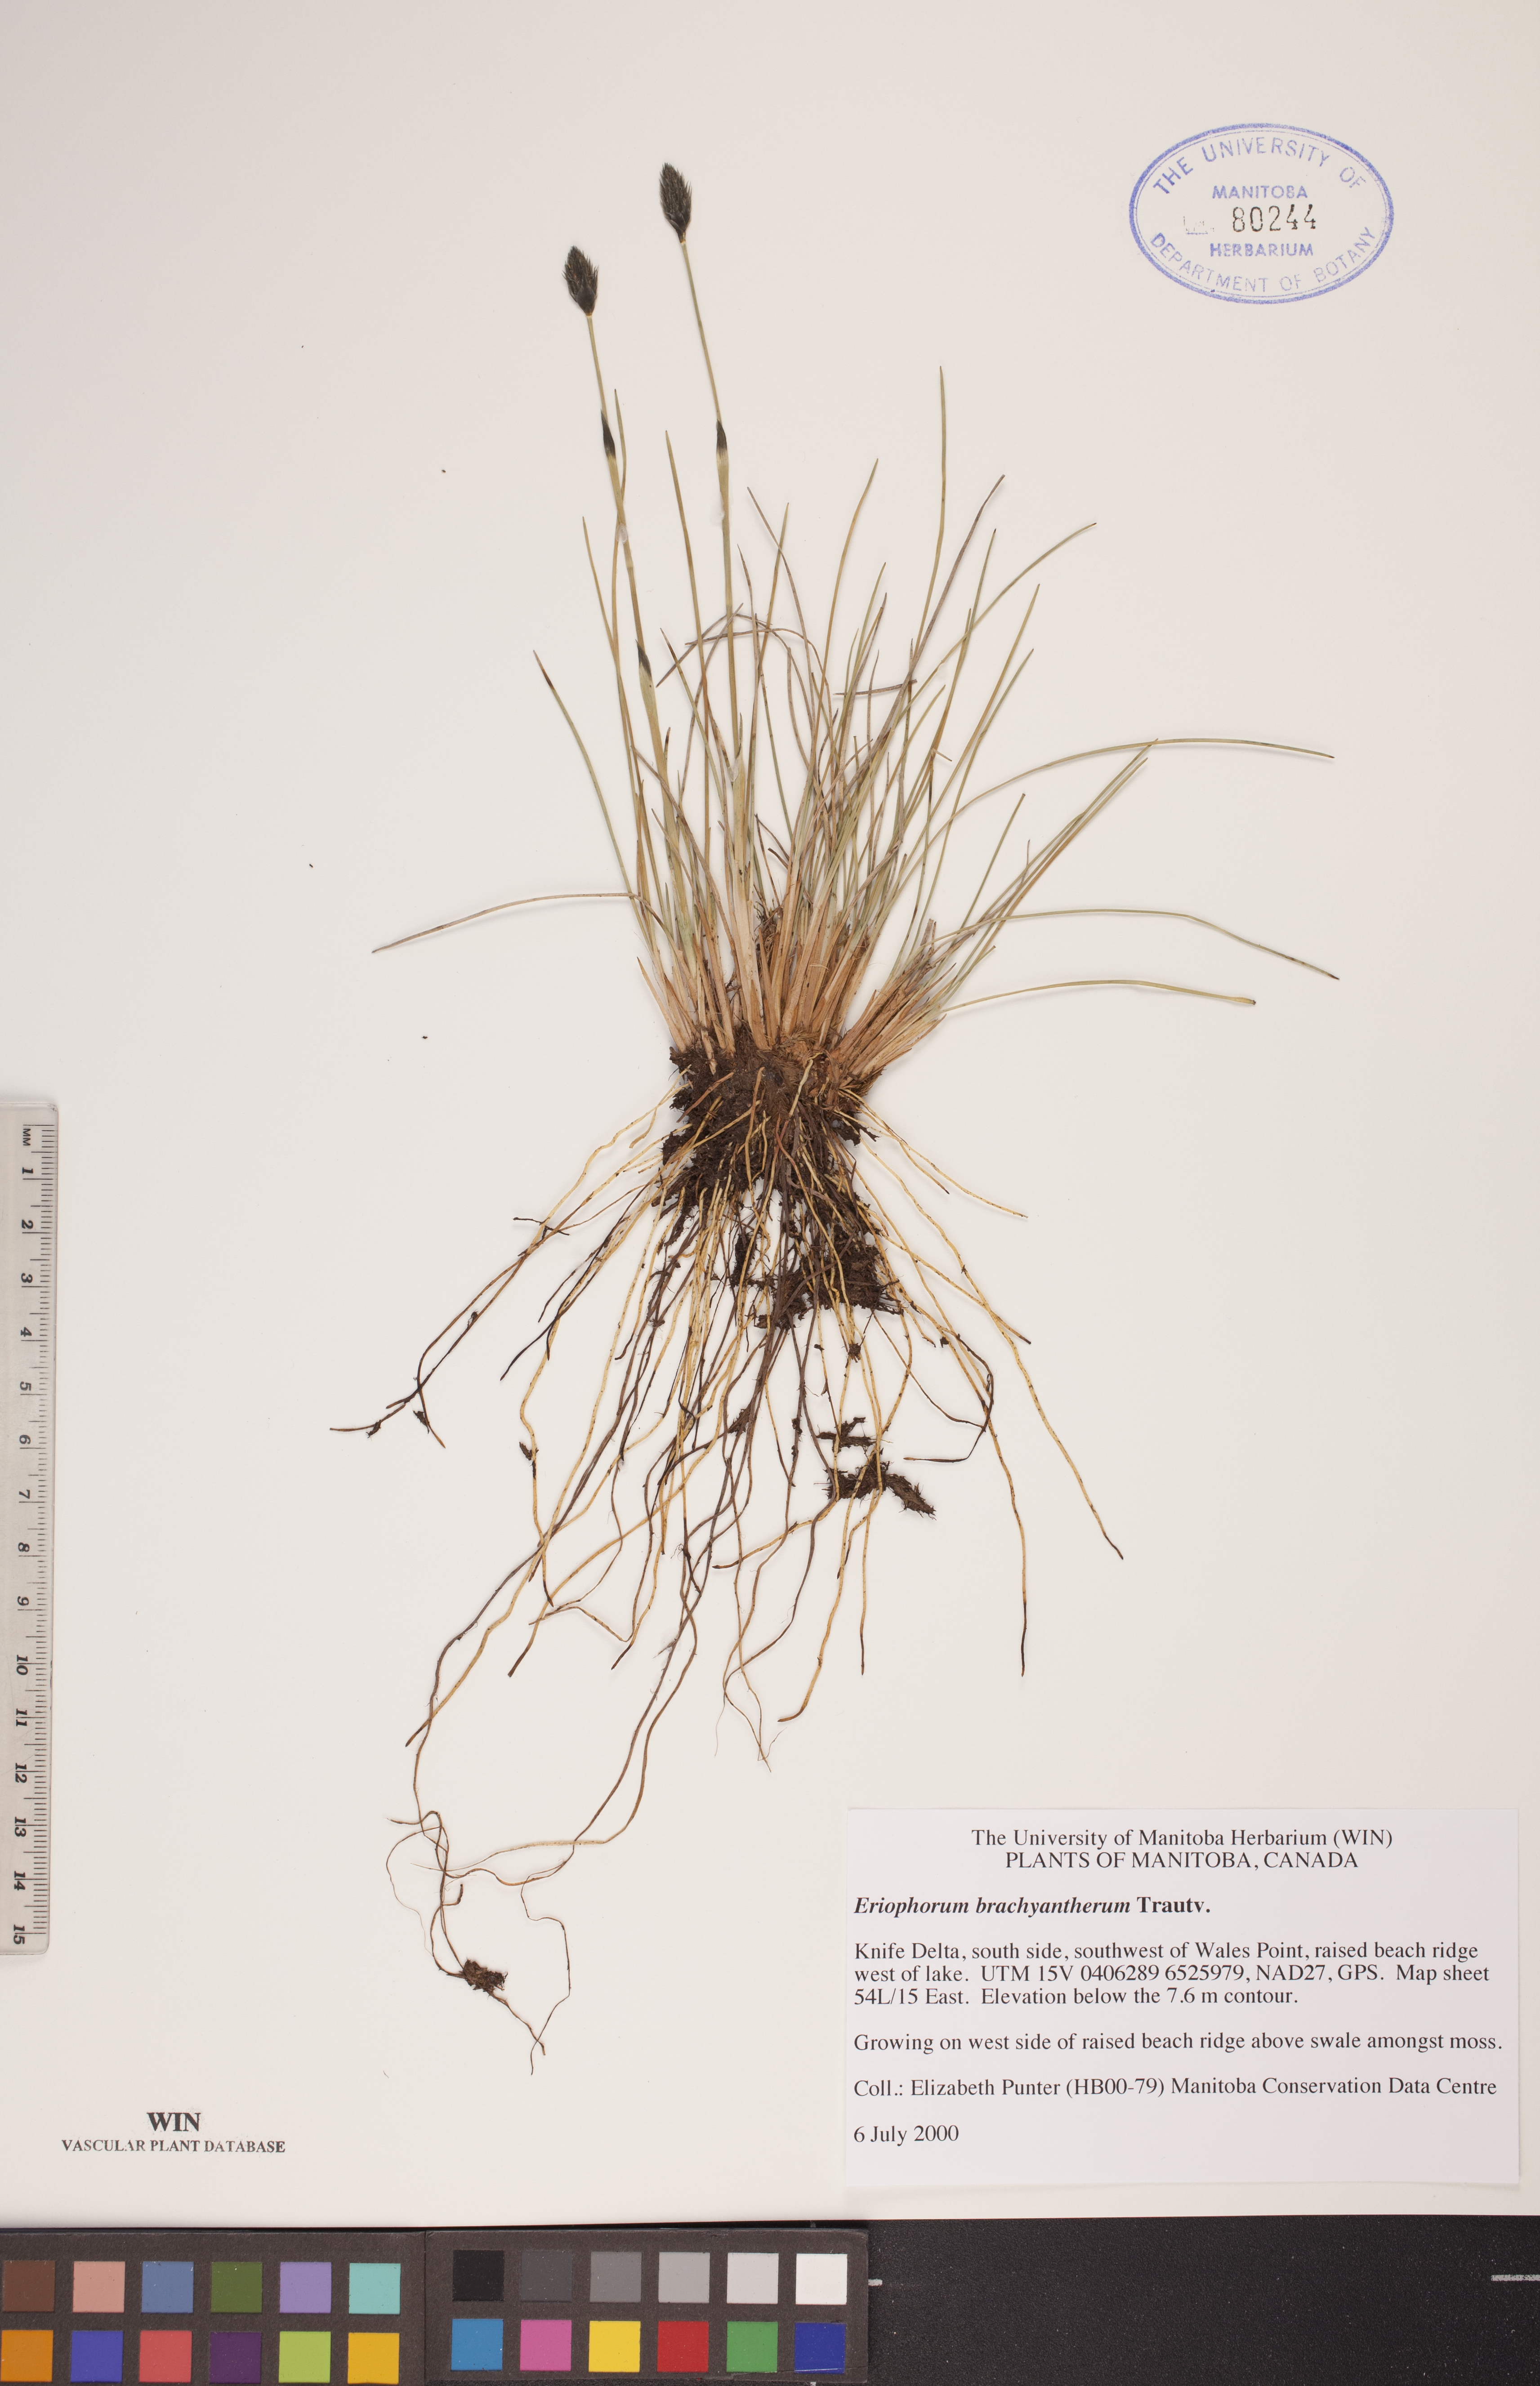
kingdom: Plantae
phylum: Tracheophyta
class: Liliopsida
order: Poales
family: Cyperaceae
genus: Eriophorum
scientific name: Eriophorum brachyantherum
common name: Closed-sheathed cottongrass
